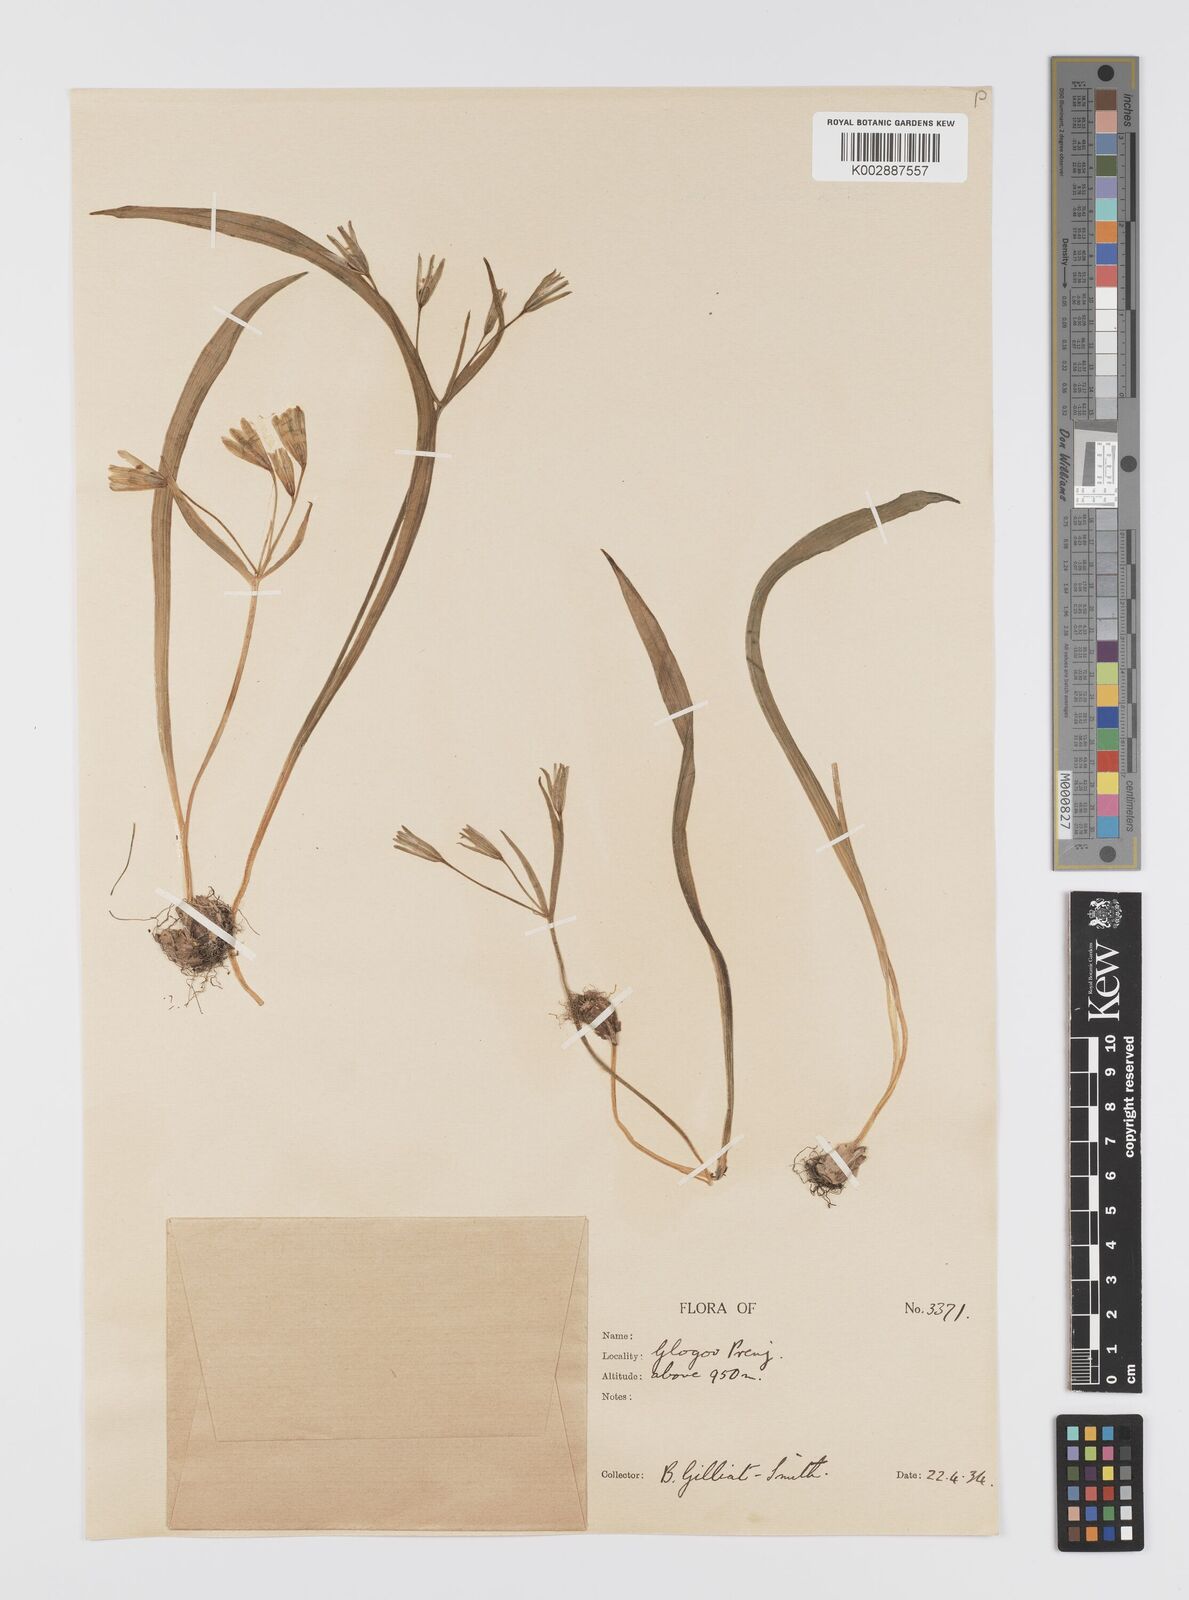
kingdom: Plantae
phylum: Tracheophyta
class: Liliopsida
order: Liliales
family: Liliaceae
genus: Gagea
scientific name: Gagea lutea
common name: Yellow star-of-bethlehem
